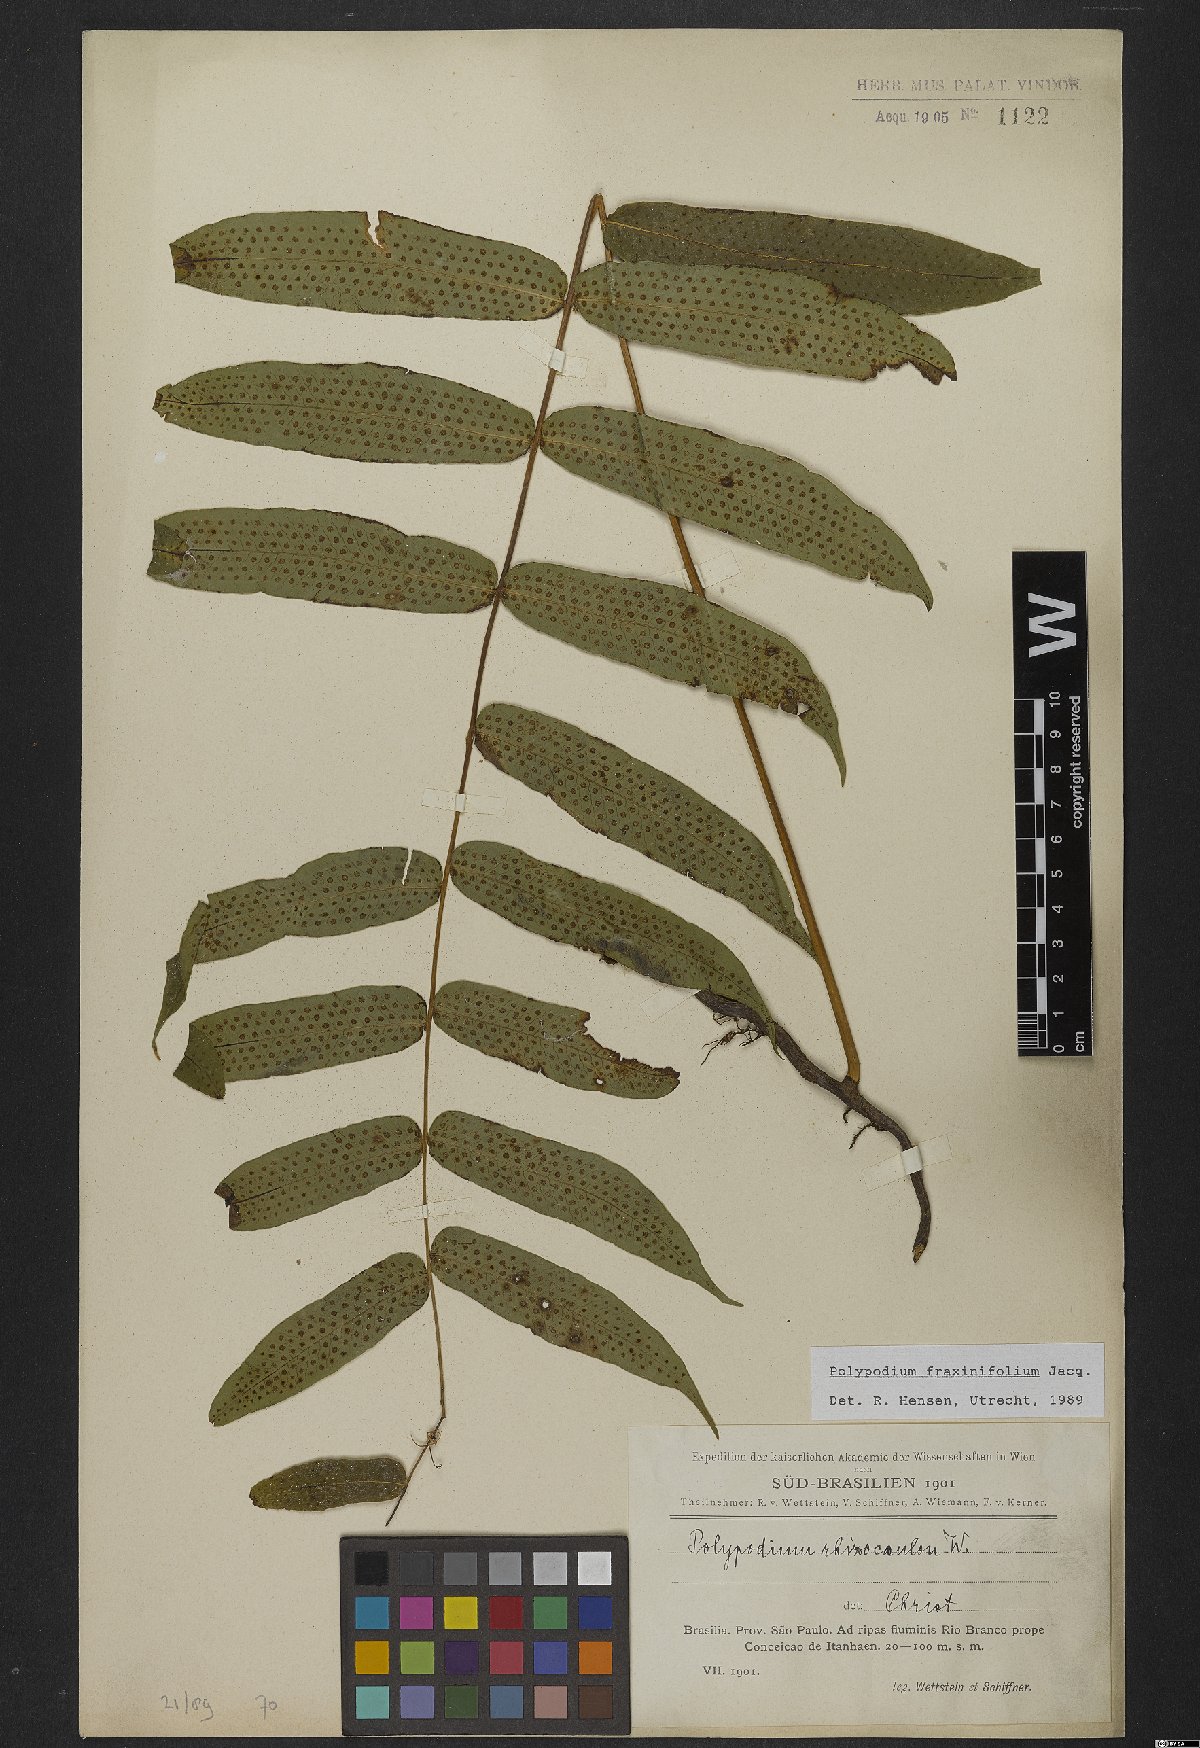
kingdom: Plantae
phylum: Tracheophyta
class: Polypodiopsida
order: Polypodiales
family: Polypodiaceae
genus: Serpocaulon
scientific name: Serpocaulon fraxinifolium
